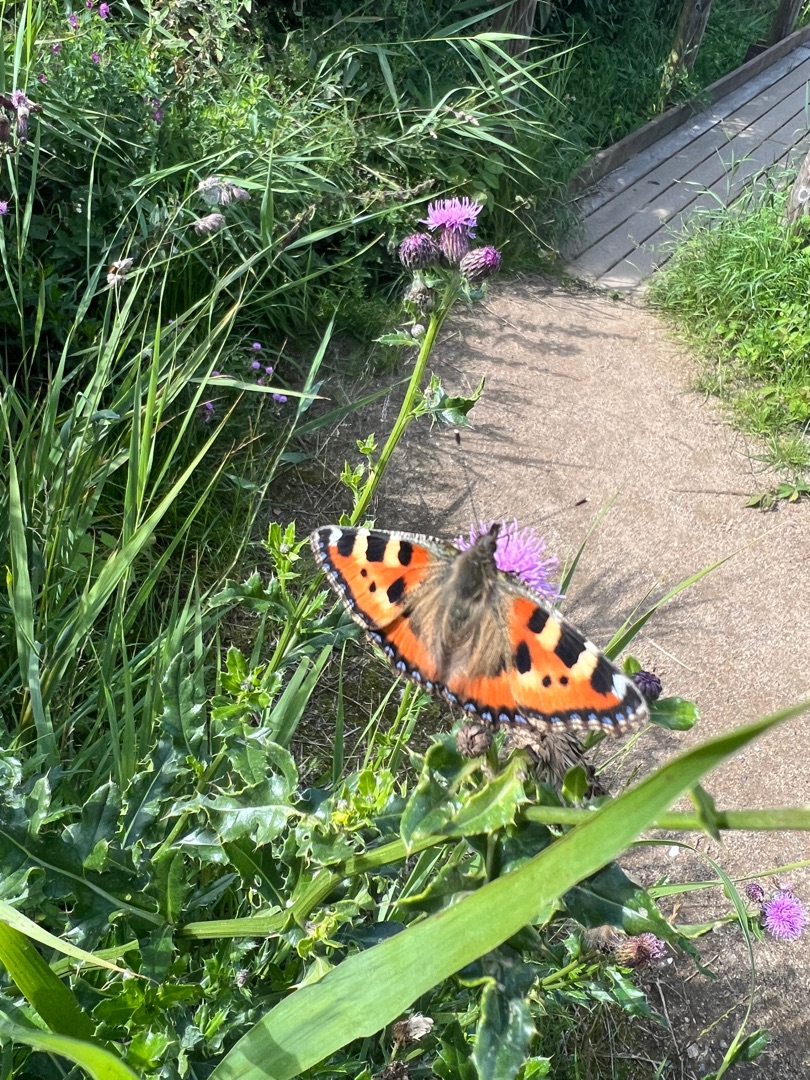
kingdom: Animalia
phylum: Arthropoda
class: Insecta
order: Lepidoptera
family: Nymphalidae
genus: Aglais
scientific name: Aglais urticae
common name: Nældens takvinge
